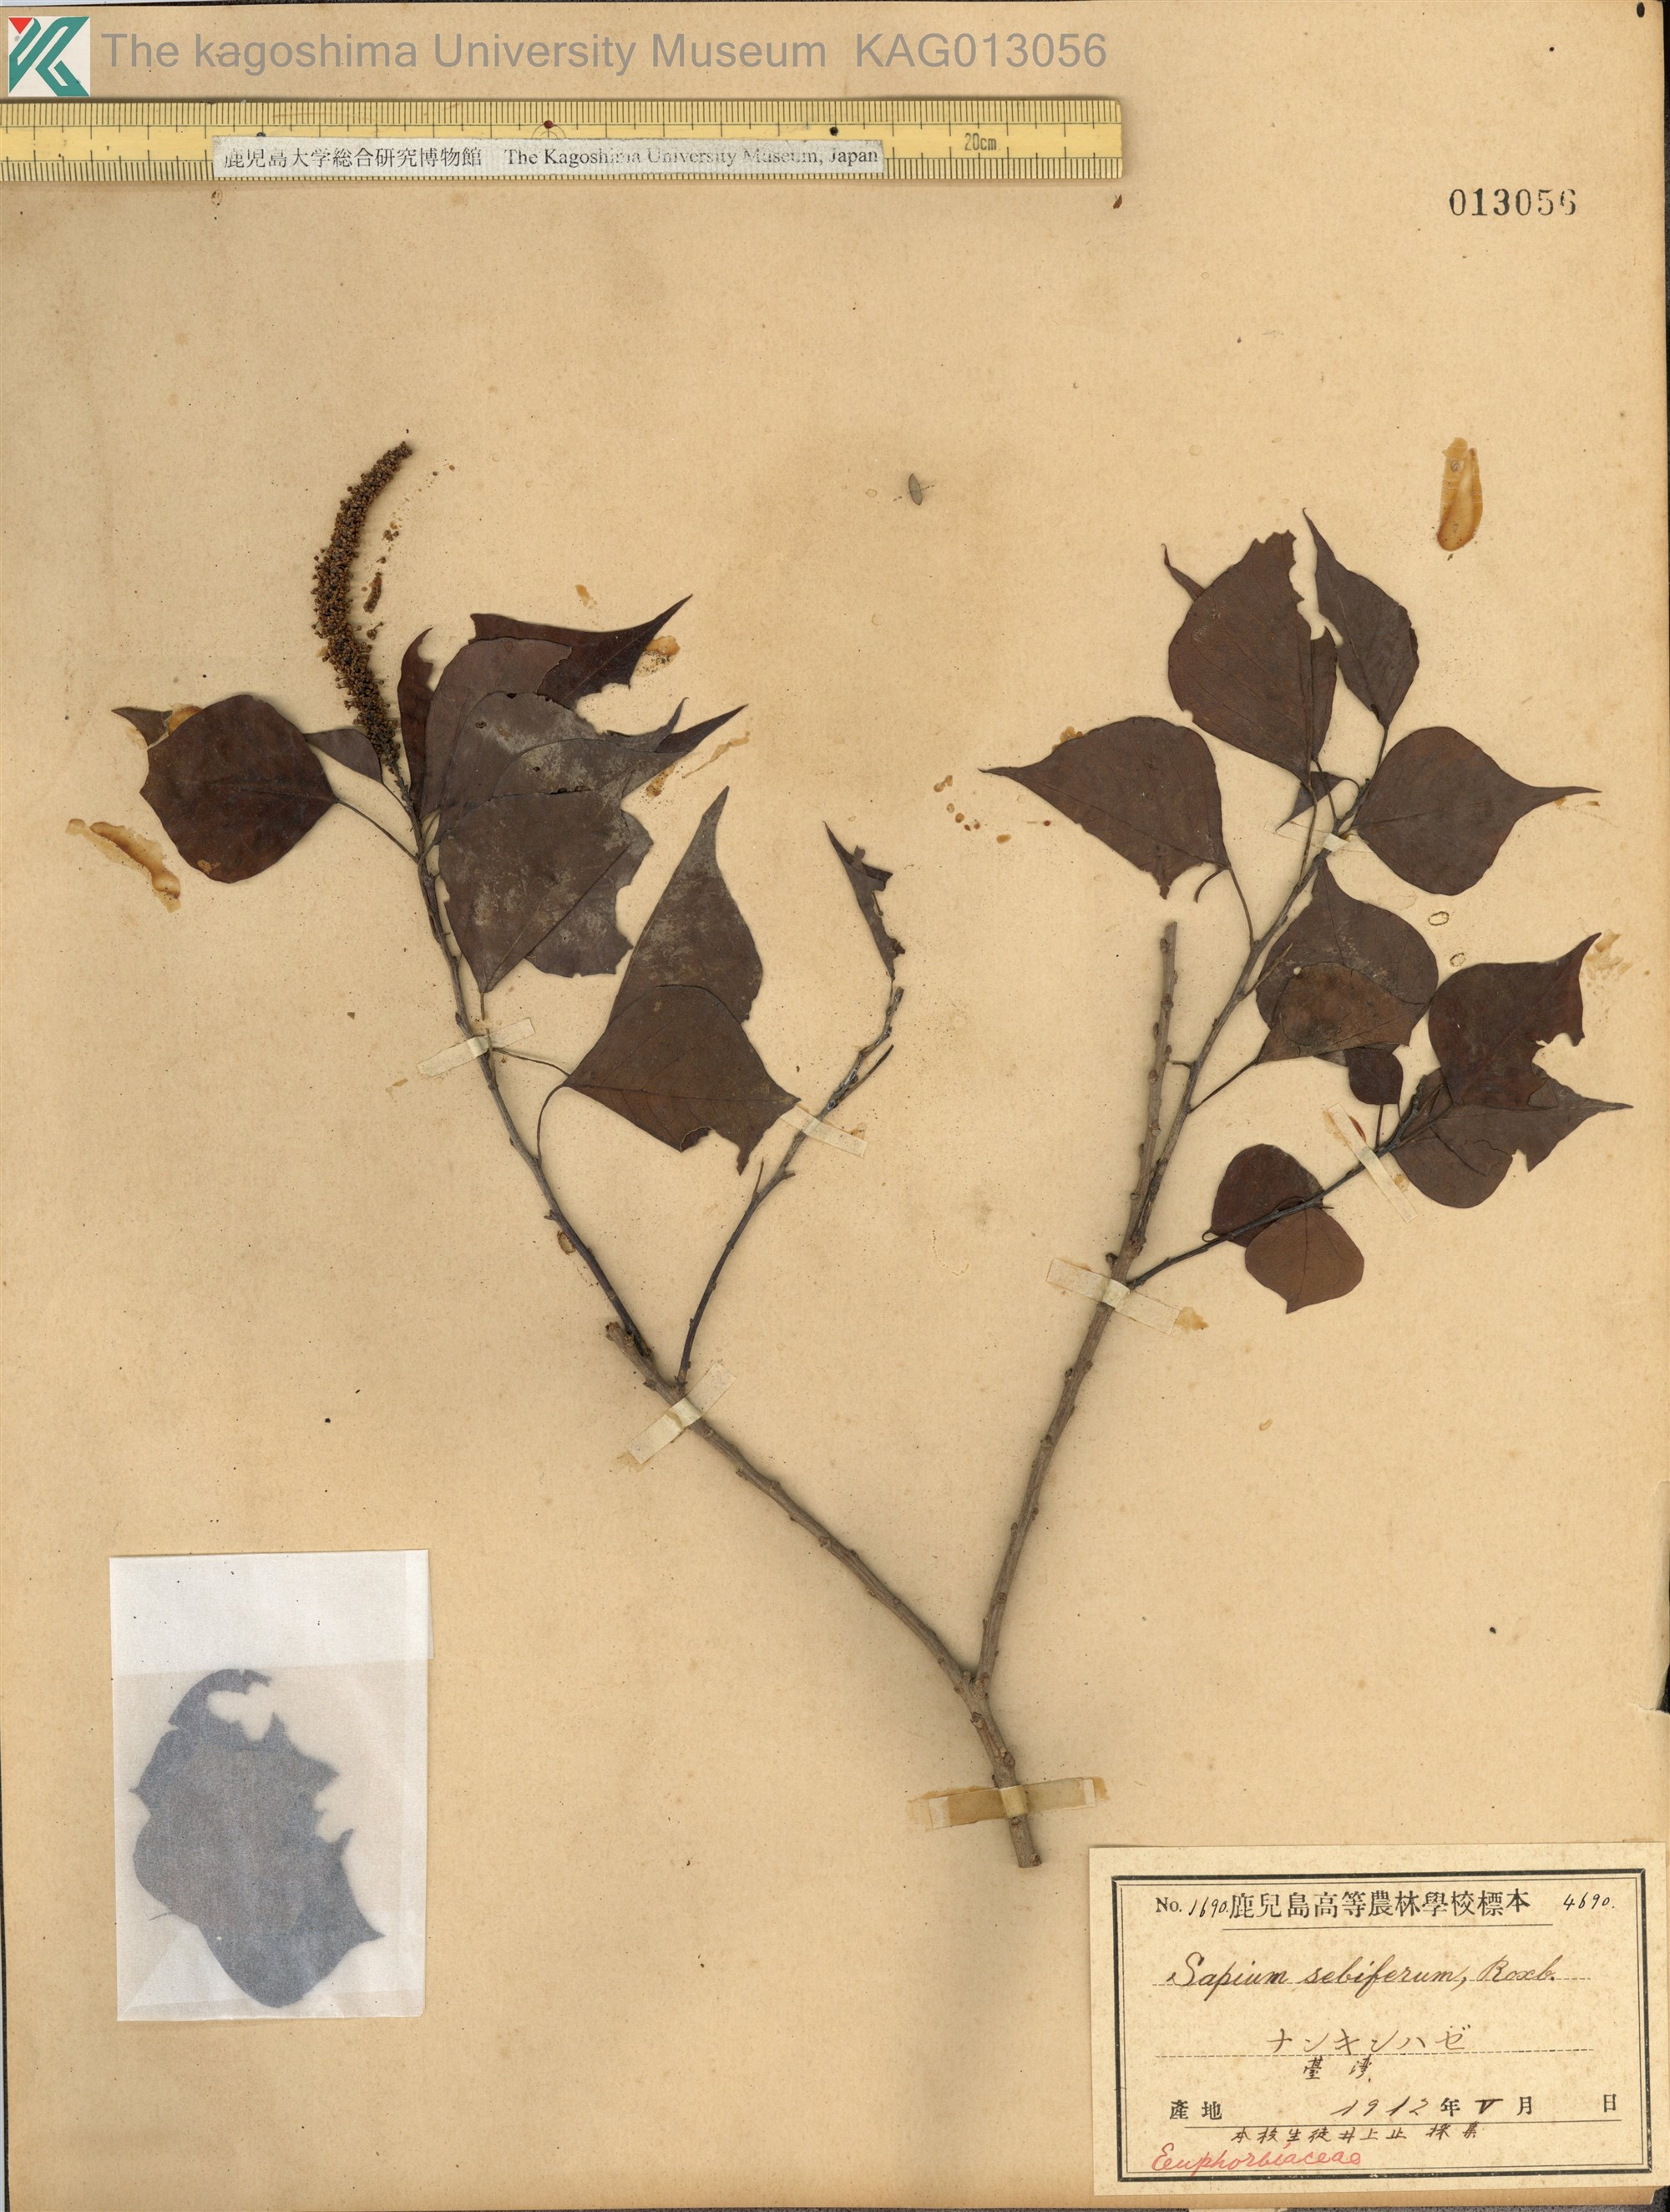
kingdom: Plantae
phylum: Tracheophyta
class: Magnoliopsida
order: Malpighiales
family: Euphorbiaceae
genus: Triadica
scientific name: Triadica sebifera
